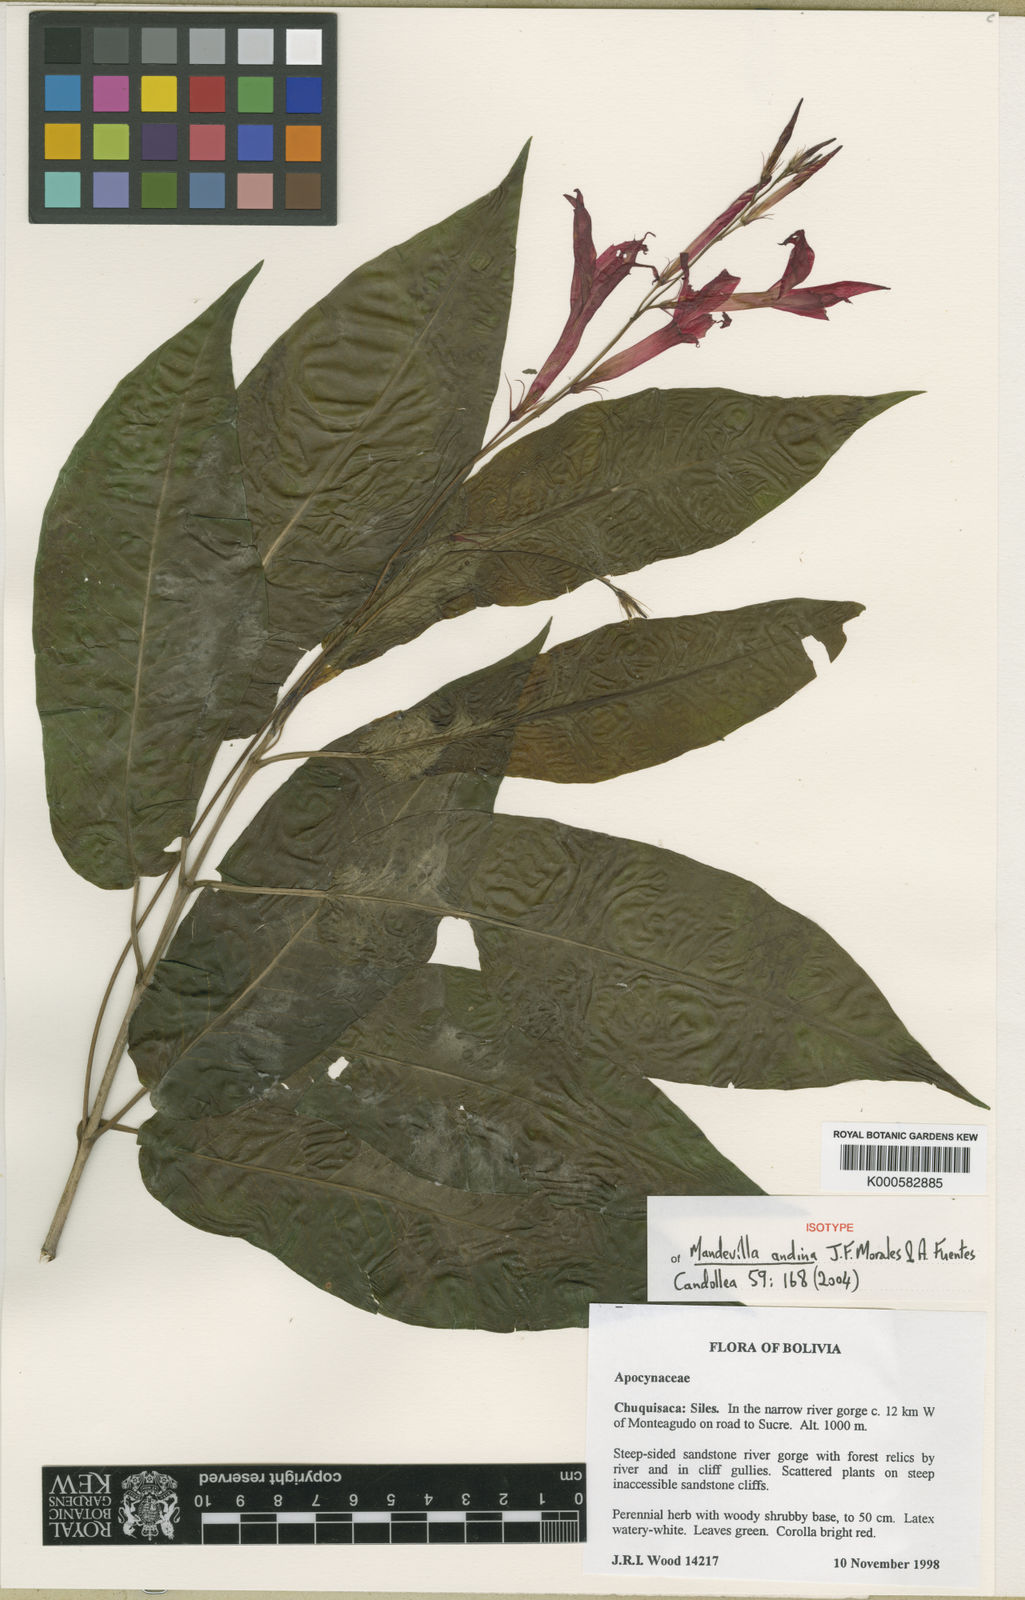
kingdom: Plantae
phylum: Tracheophyta
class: Magnoliopsida
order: Gentianales
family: Apocynaceae
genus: Mandevilla
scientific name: Mandevilla andina
